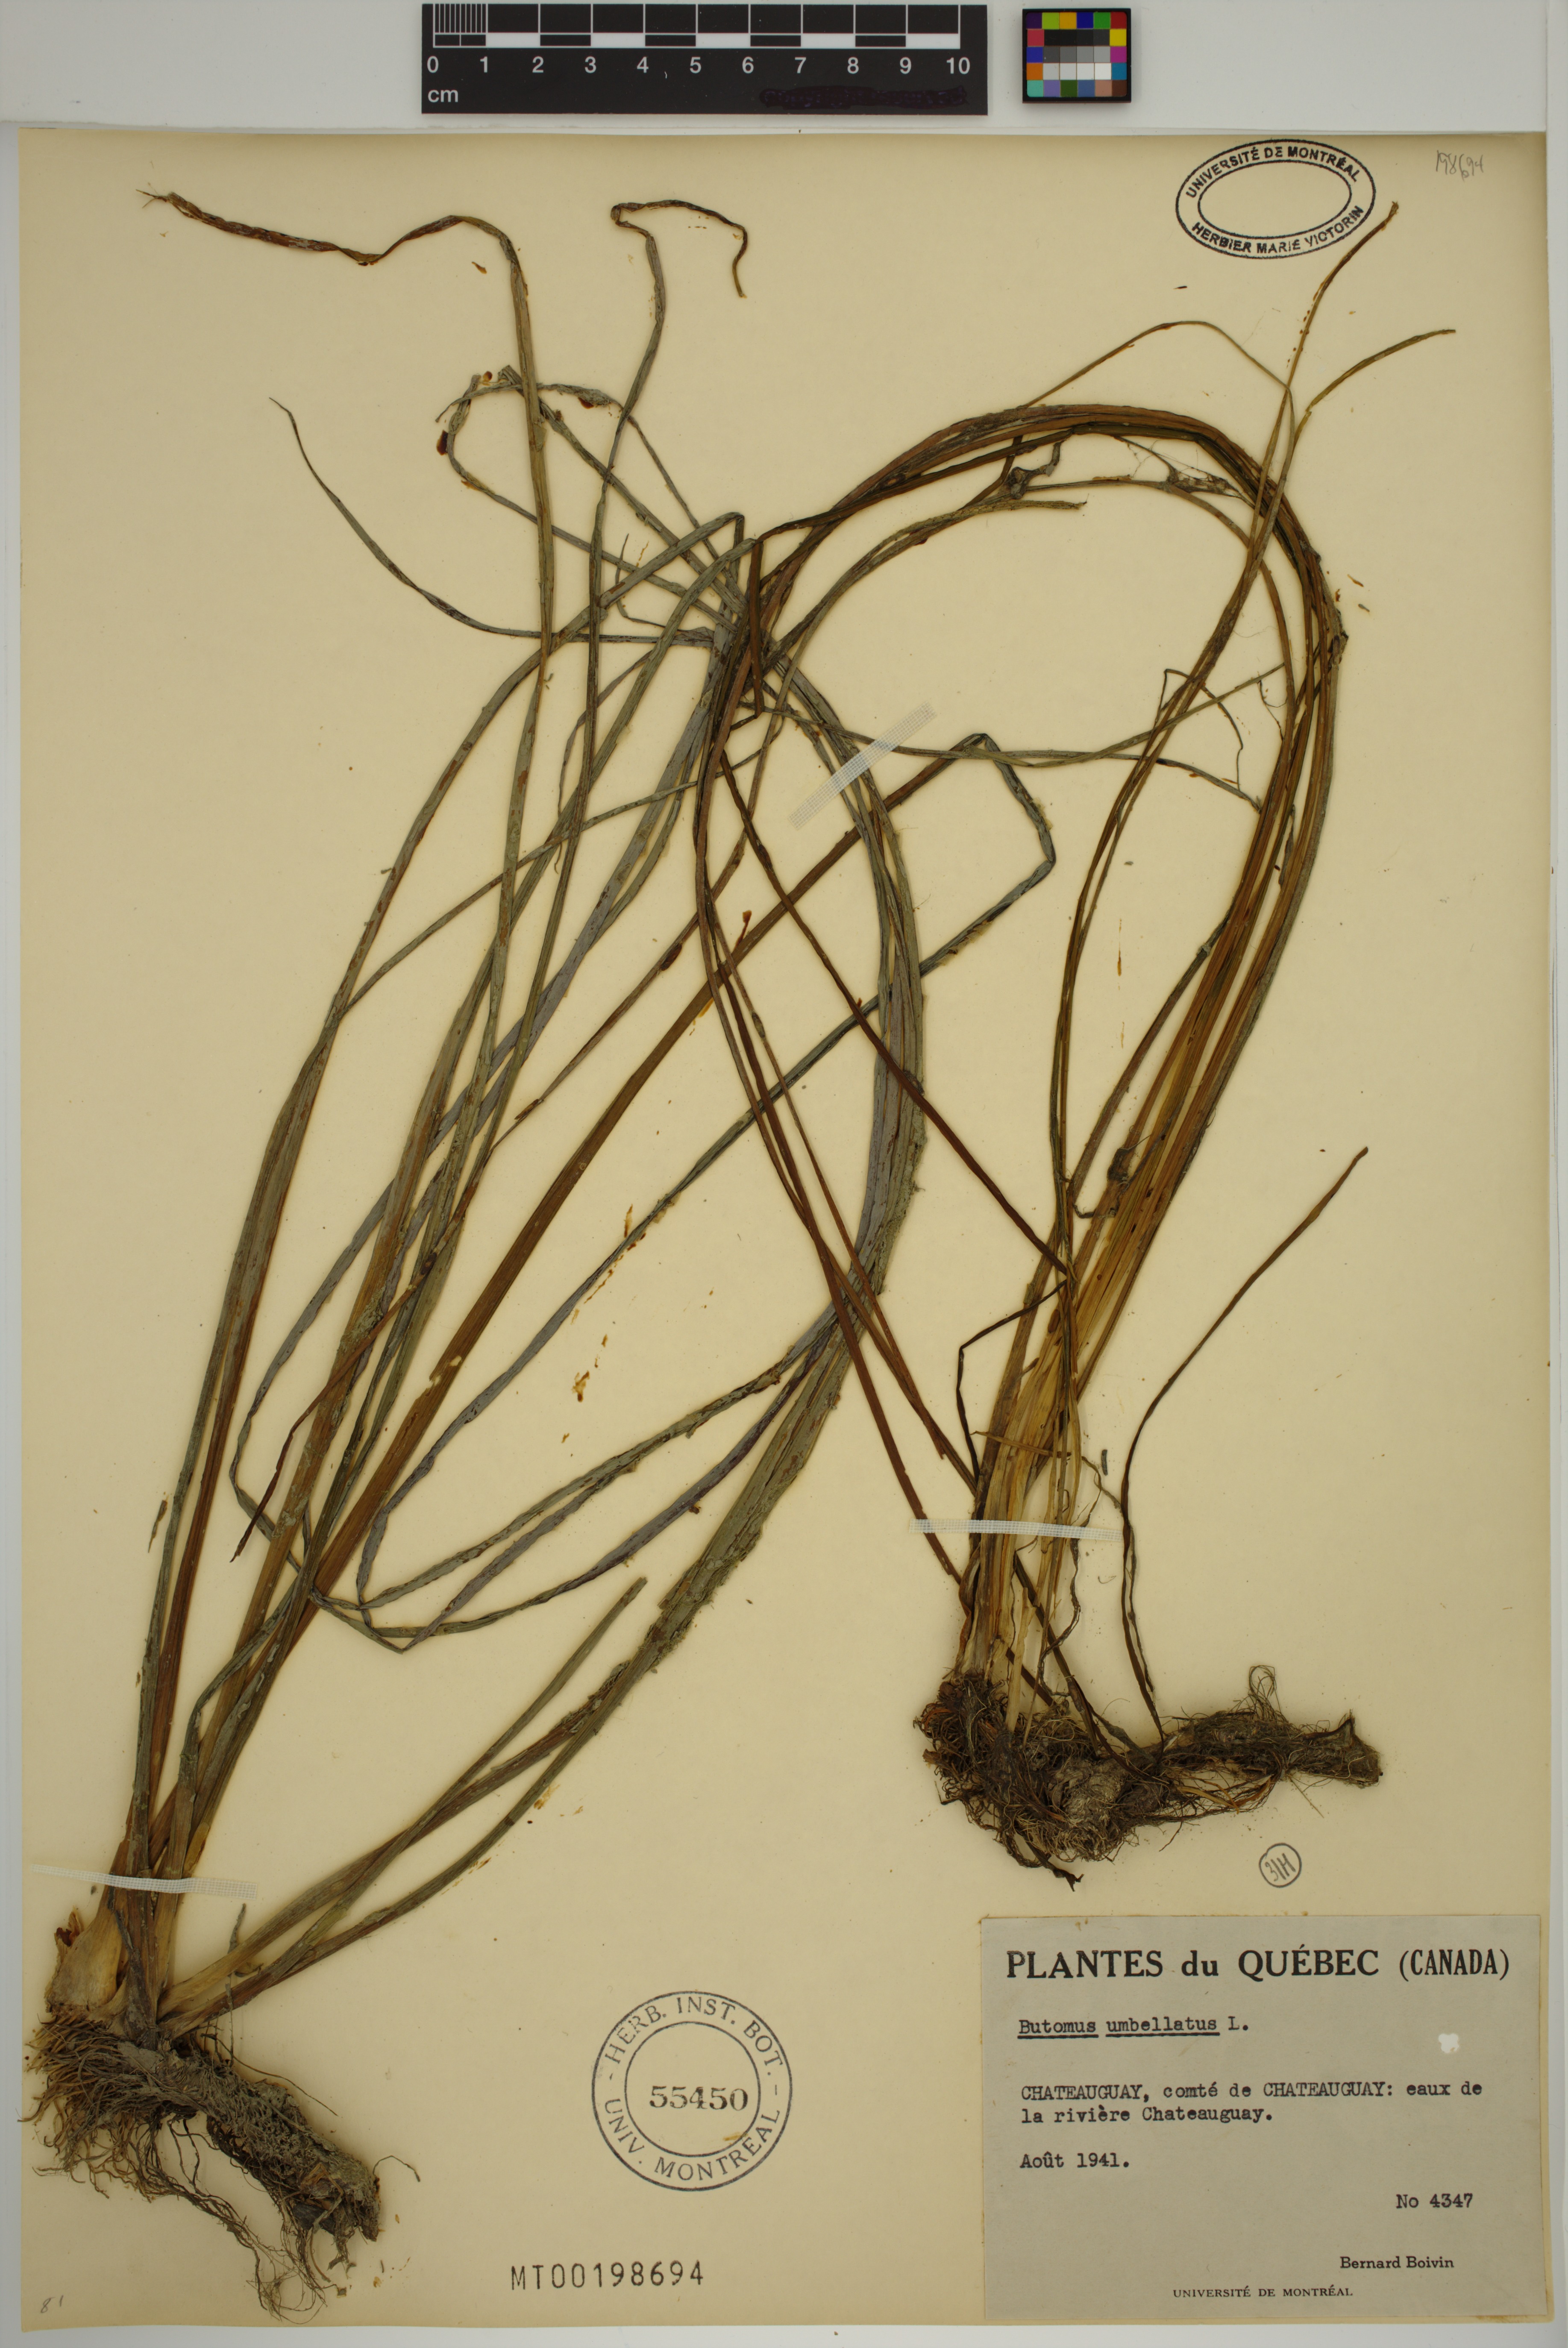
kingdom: Plantae
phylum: Tracheophyta
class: Liliopsida
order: Alismatales
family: Butomaceae
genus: Butomus
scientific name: Butomus umbellatus
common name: Flowering-rush
